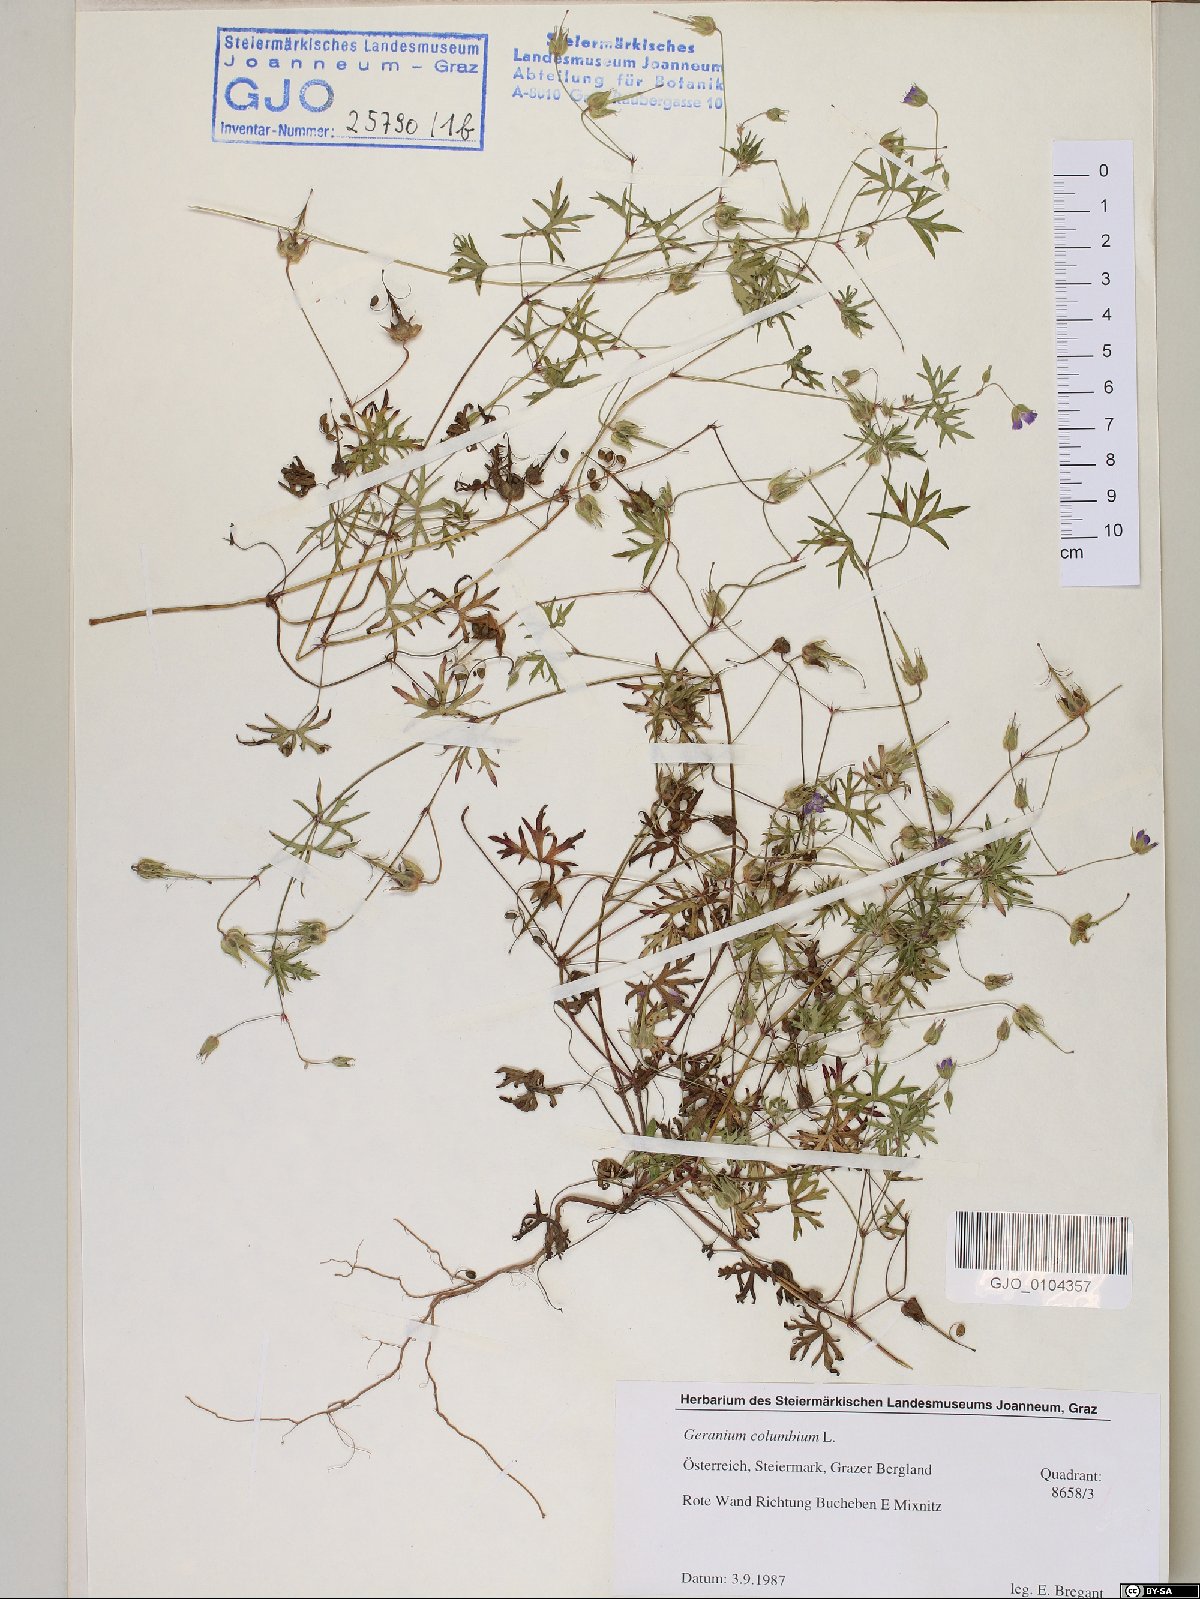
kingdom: Plantae
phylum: Tracheophyta
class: Magnoliopsida
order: Geraniales
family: Geraniaceae
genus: Geranium
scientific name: Geranium columbinum
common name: Long-stalked crane's-bill
